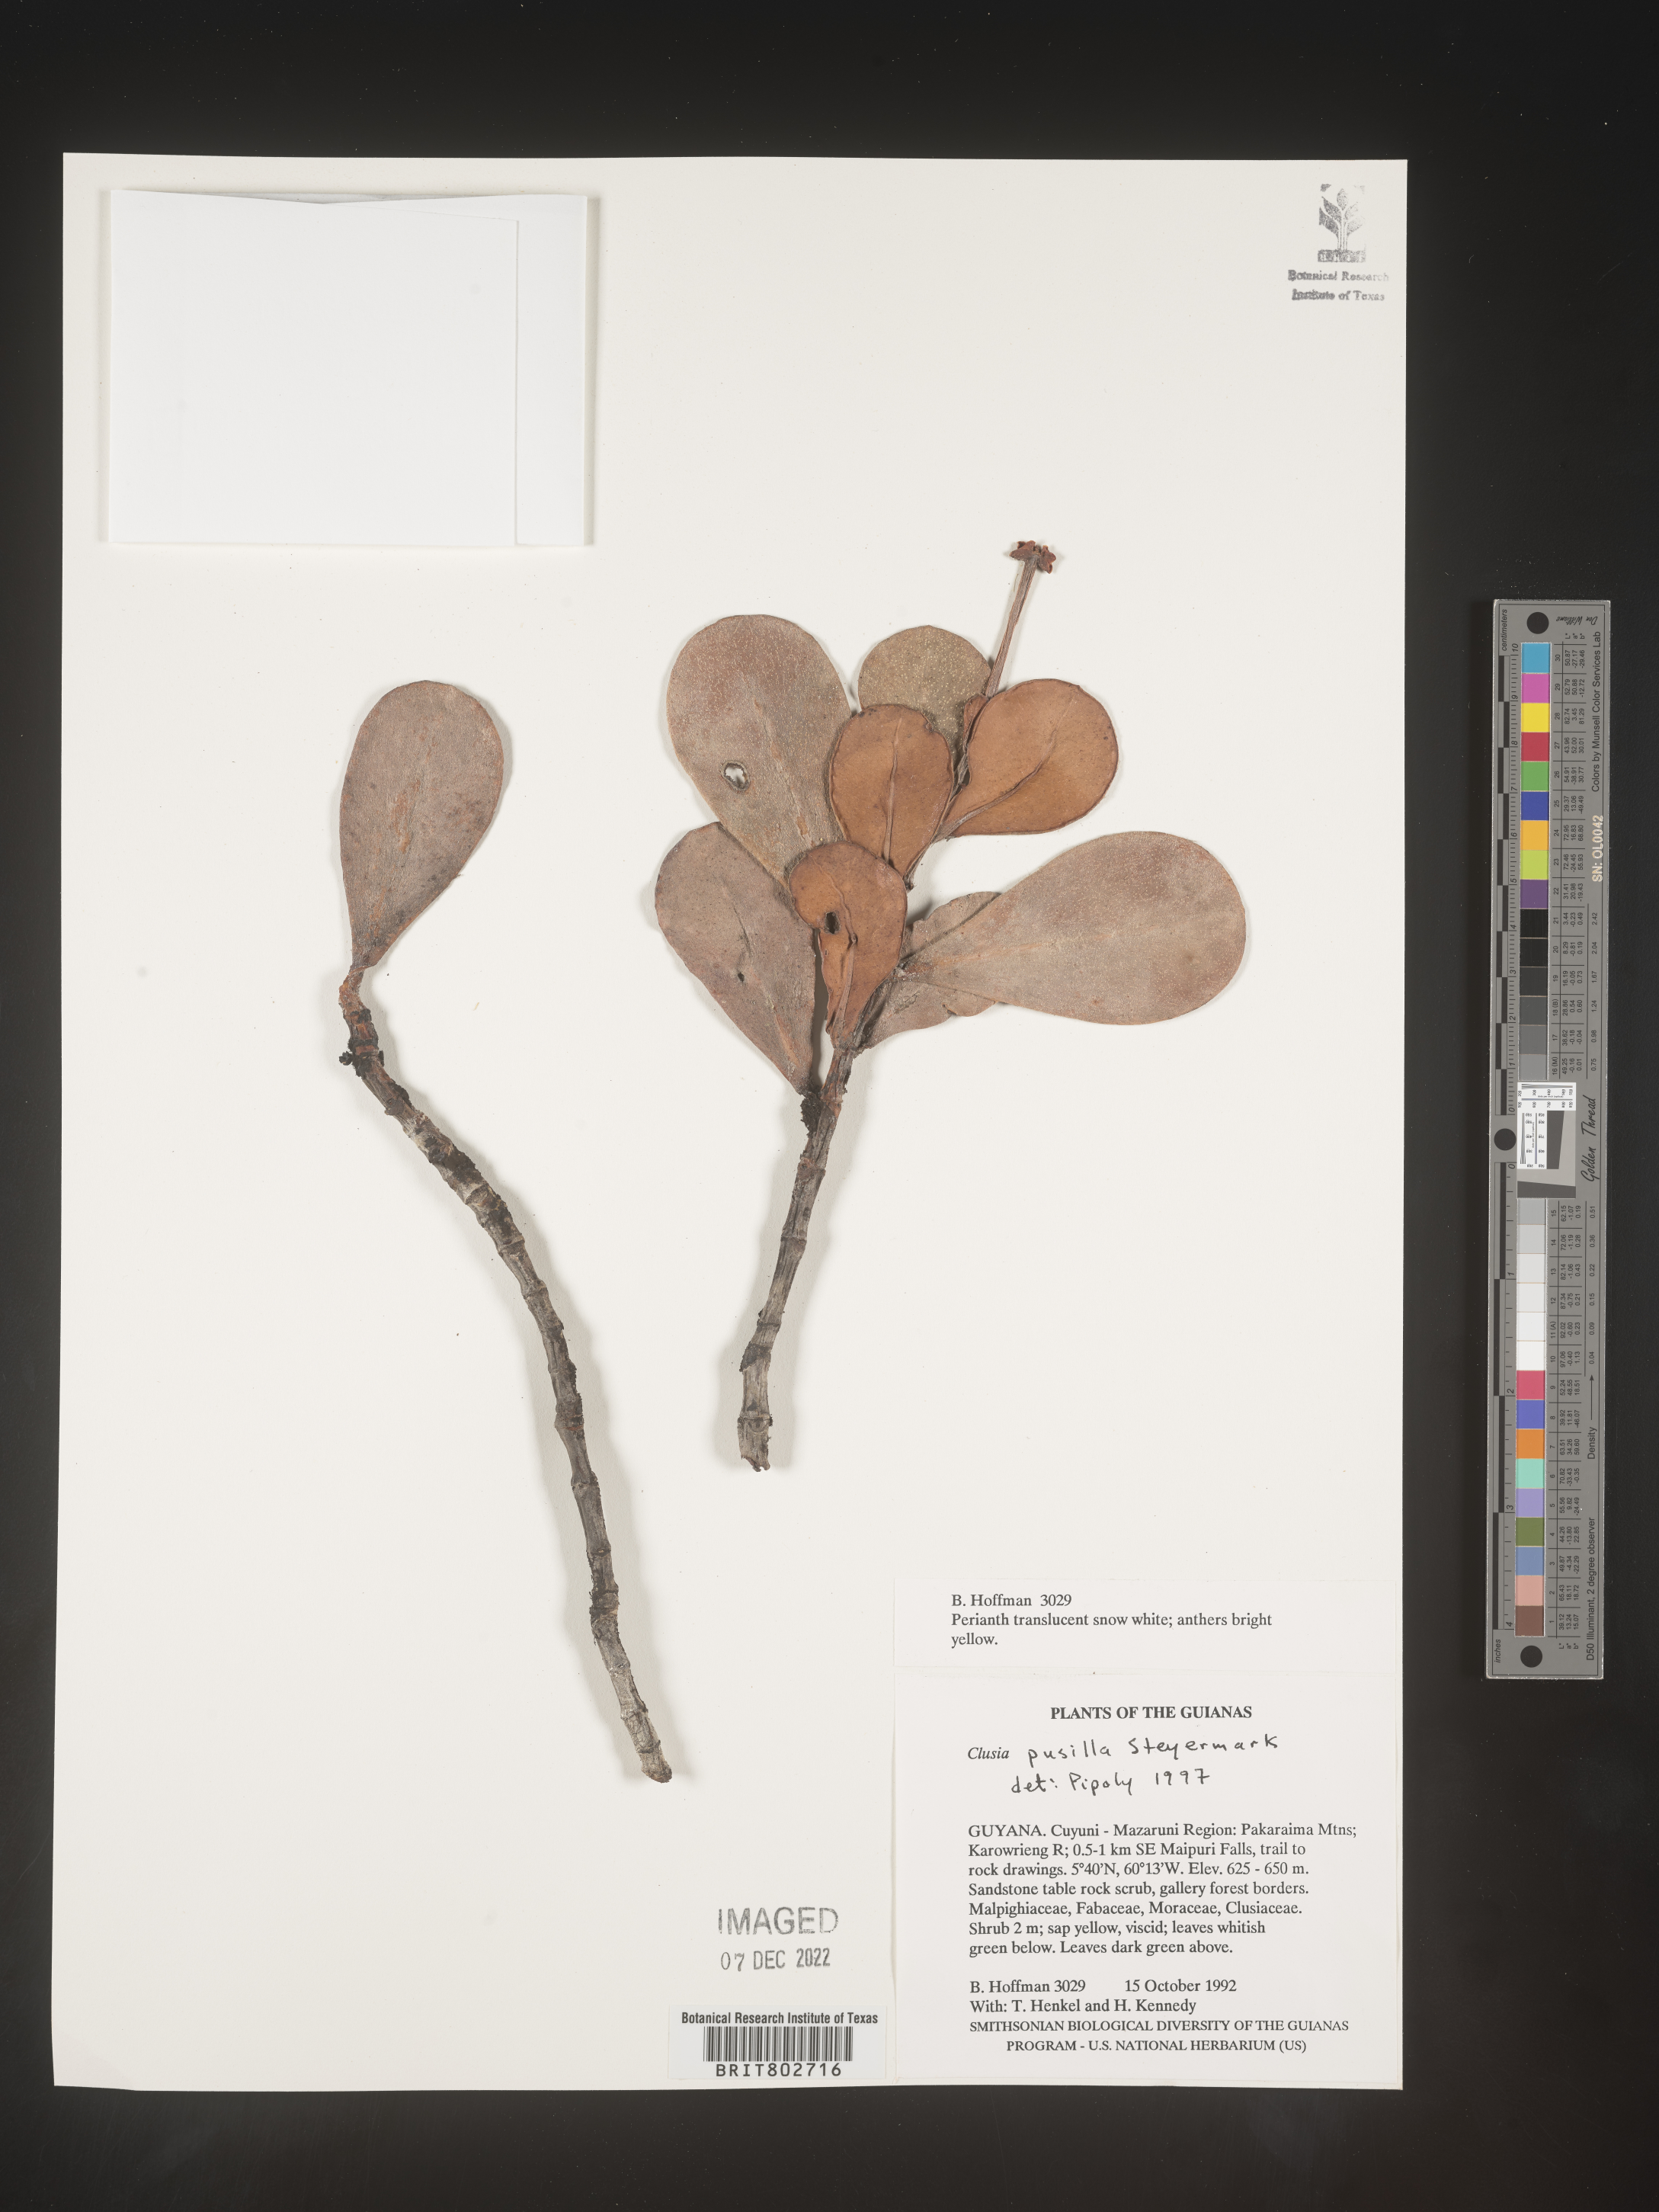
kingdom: Plantae
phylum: Tracheophyta
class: Magnoliopsida
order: Malpighiales
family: Clusiaceae
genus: Clusia
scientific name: Clusia pusilla
